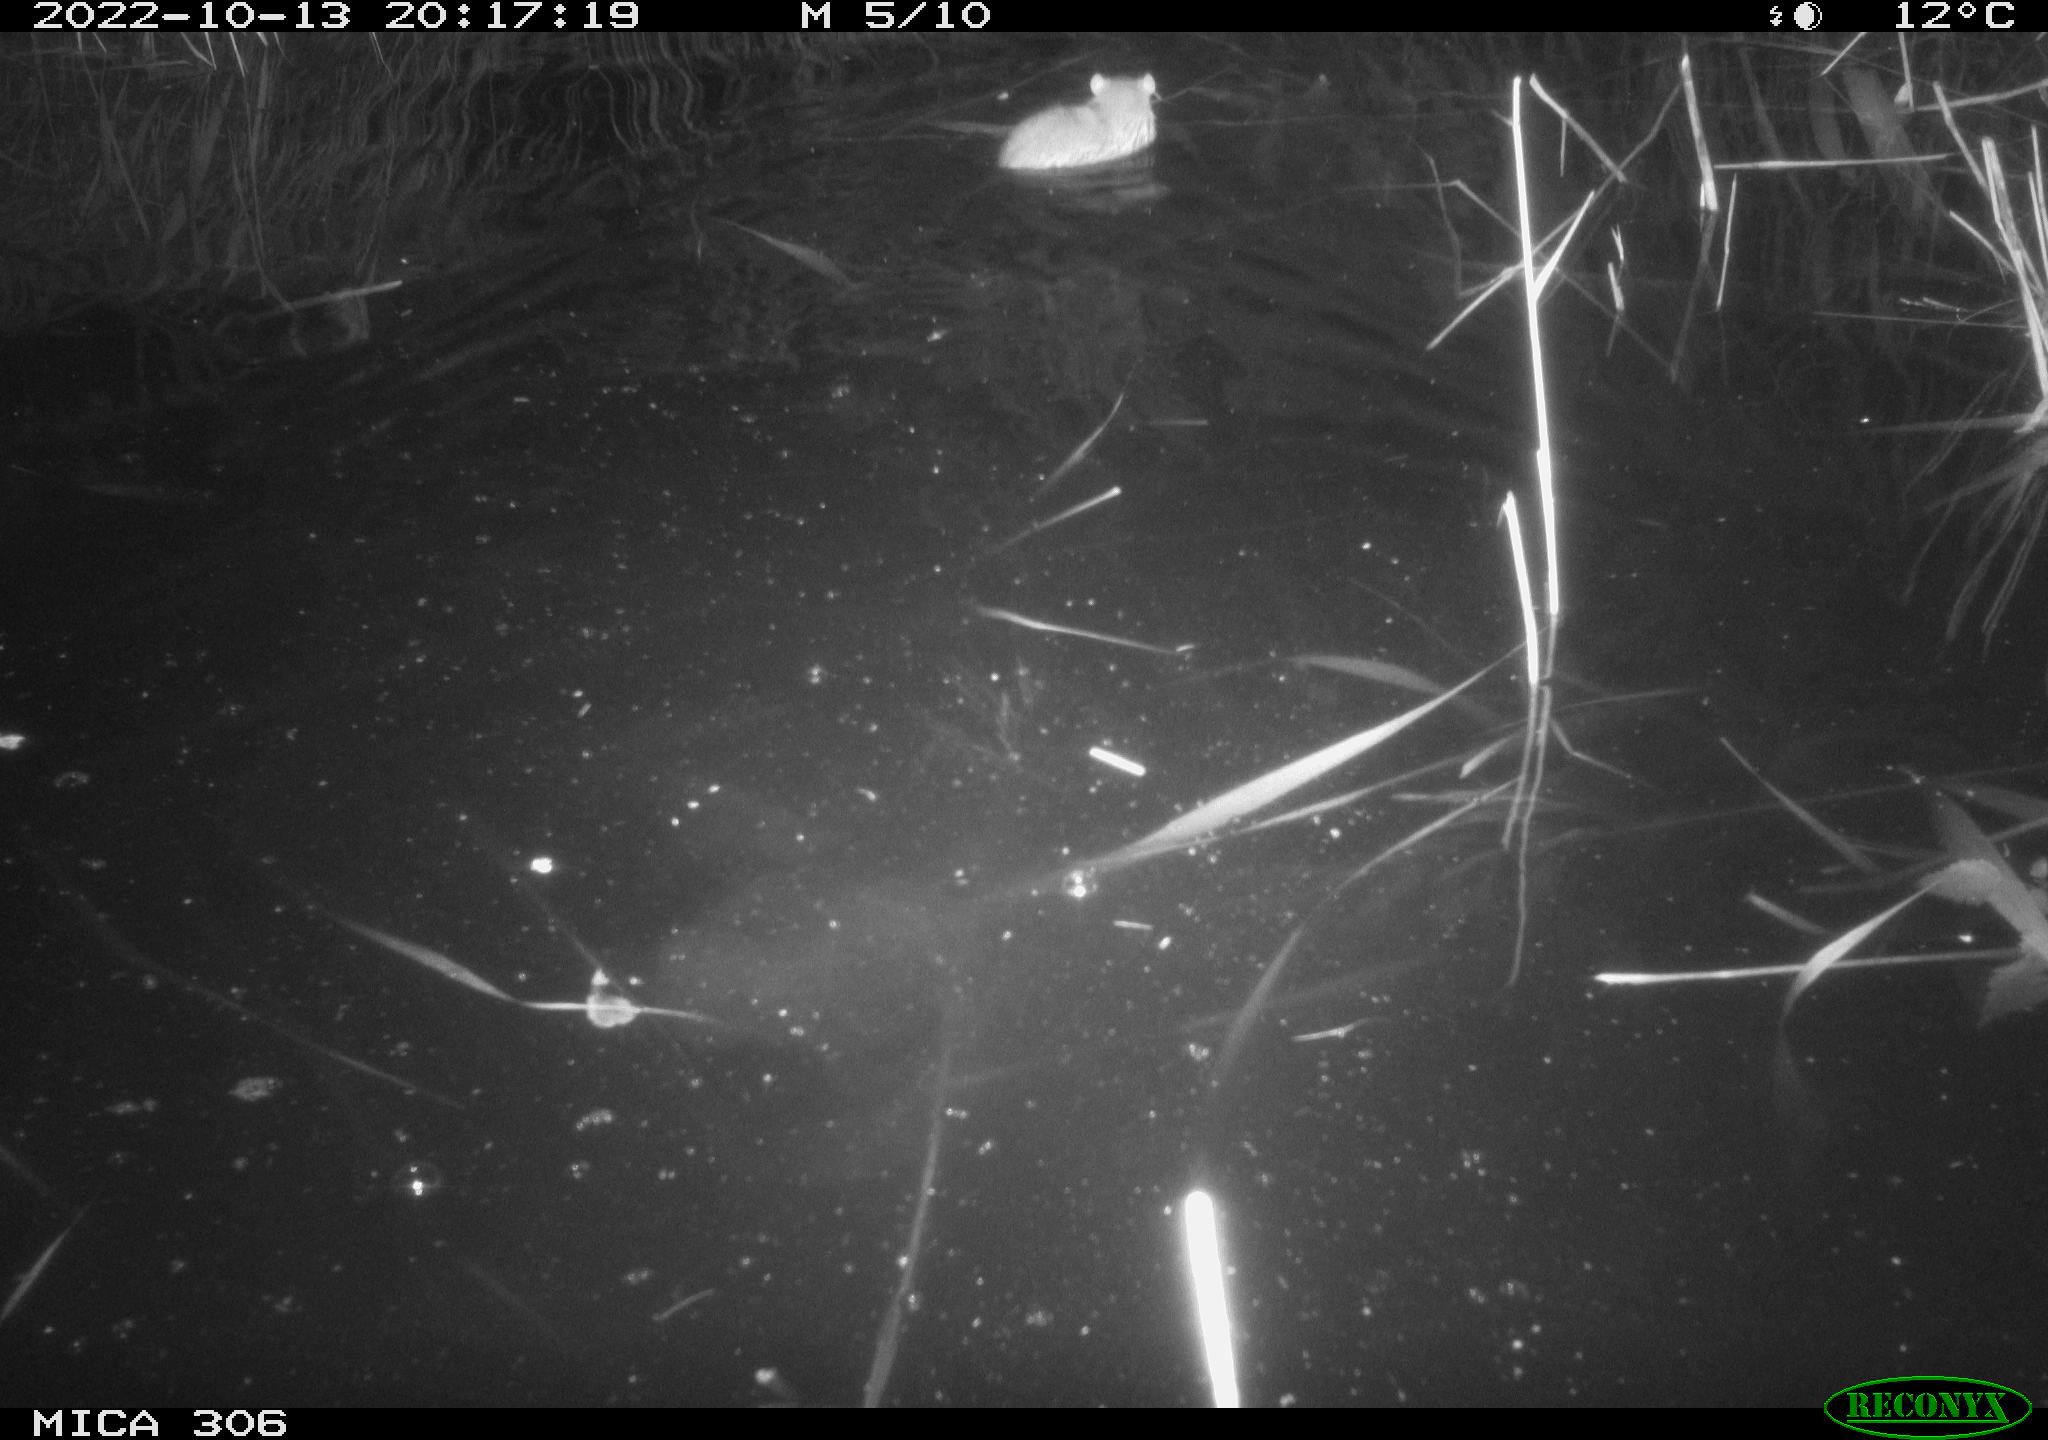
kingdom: Animalia
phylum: Chordata
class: Mammalia
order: Rodentia
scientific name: Rodentia
